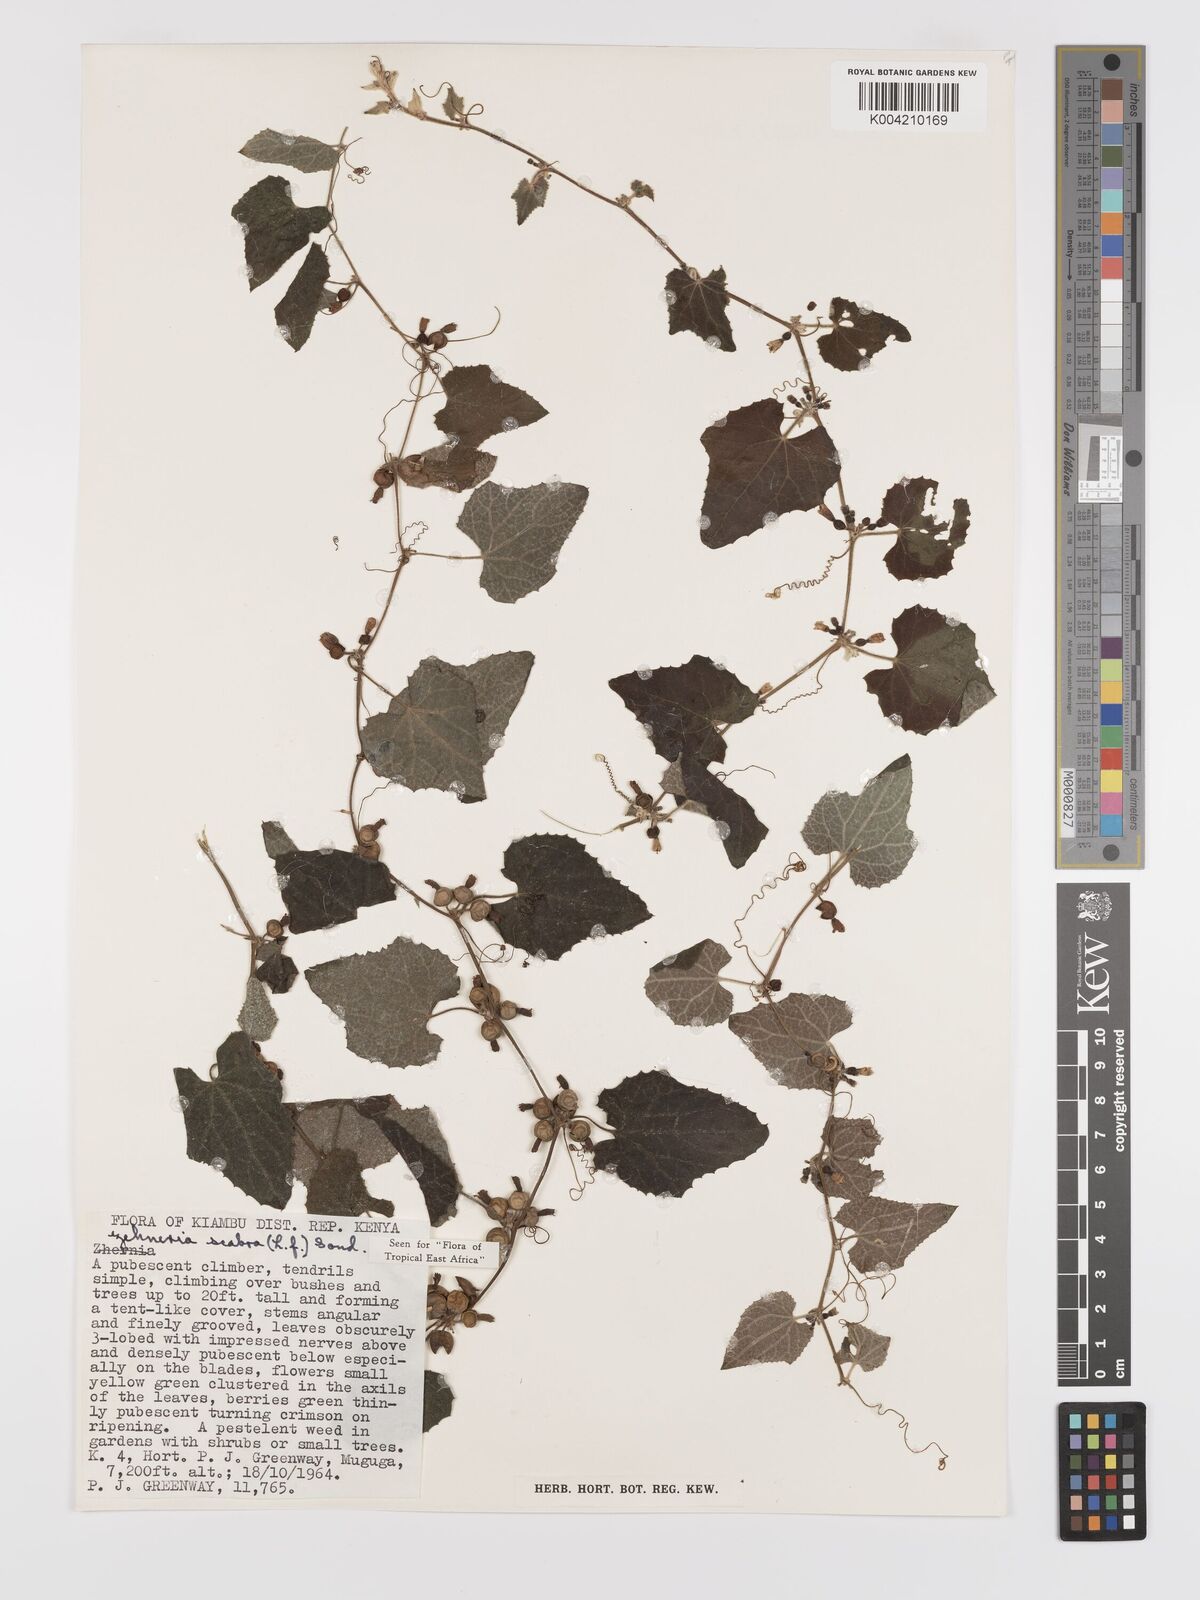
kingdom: Plantae
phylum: Tracheophyta
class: Magnoliopsida
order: Cucurbitales
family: Cucurbitaceae
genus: Zehneria
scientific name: Zehneria scabra
